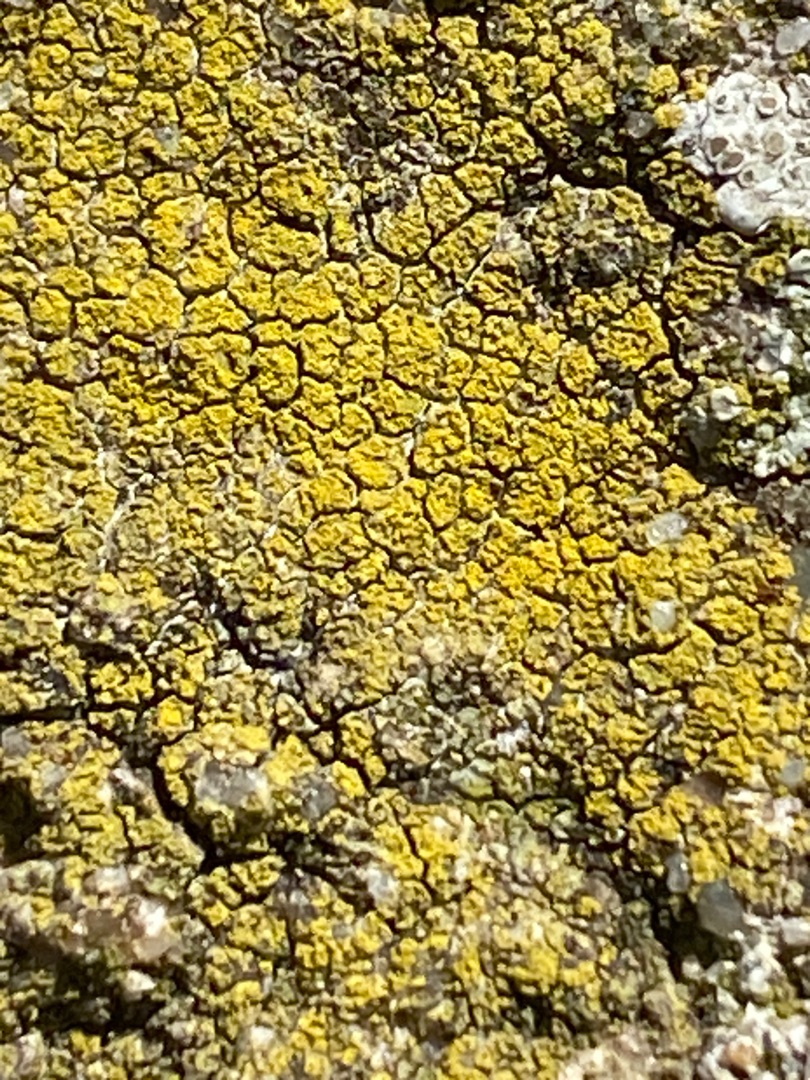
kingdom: Fungi
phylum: Ascomycota
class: Candelariomycetes
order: Candelariales
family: Candelariaceae
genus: Candelariella
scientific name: Candelariella vitellina
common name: Almindelig æggeblommelav
